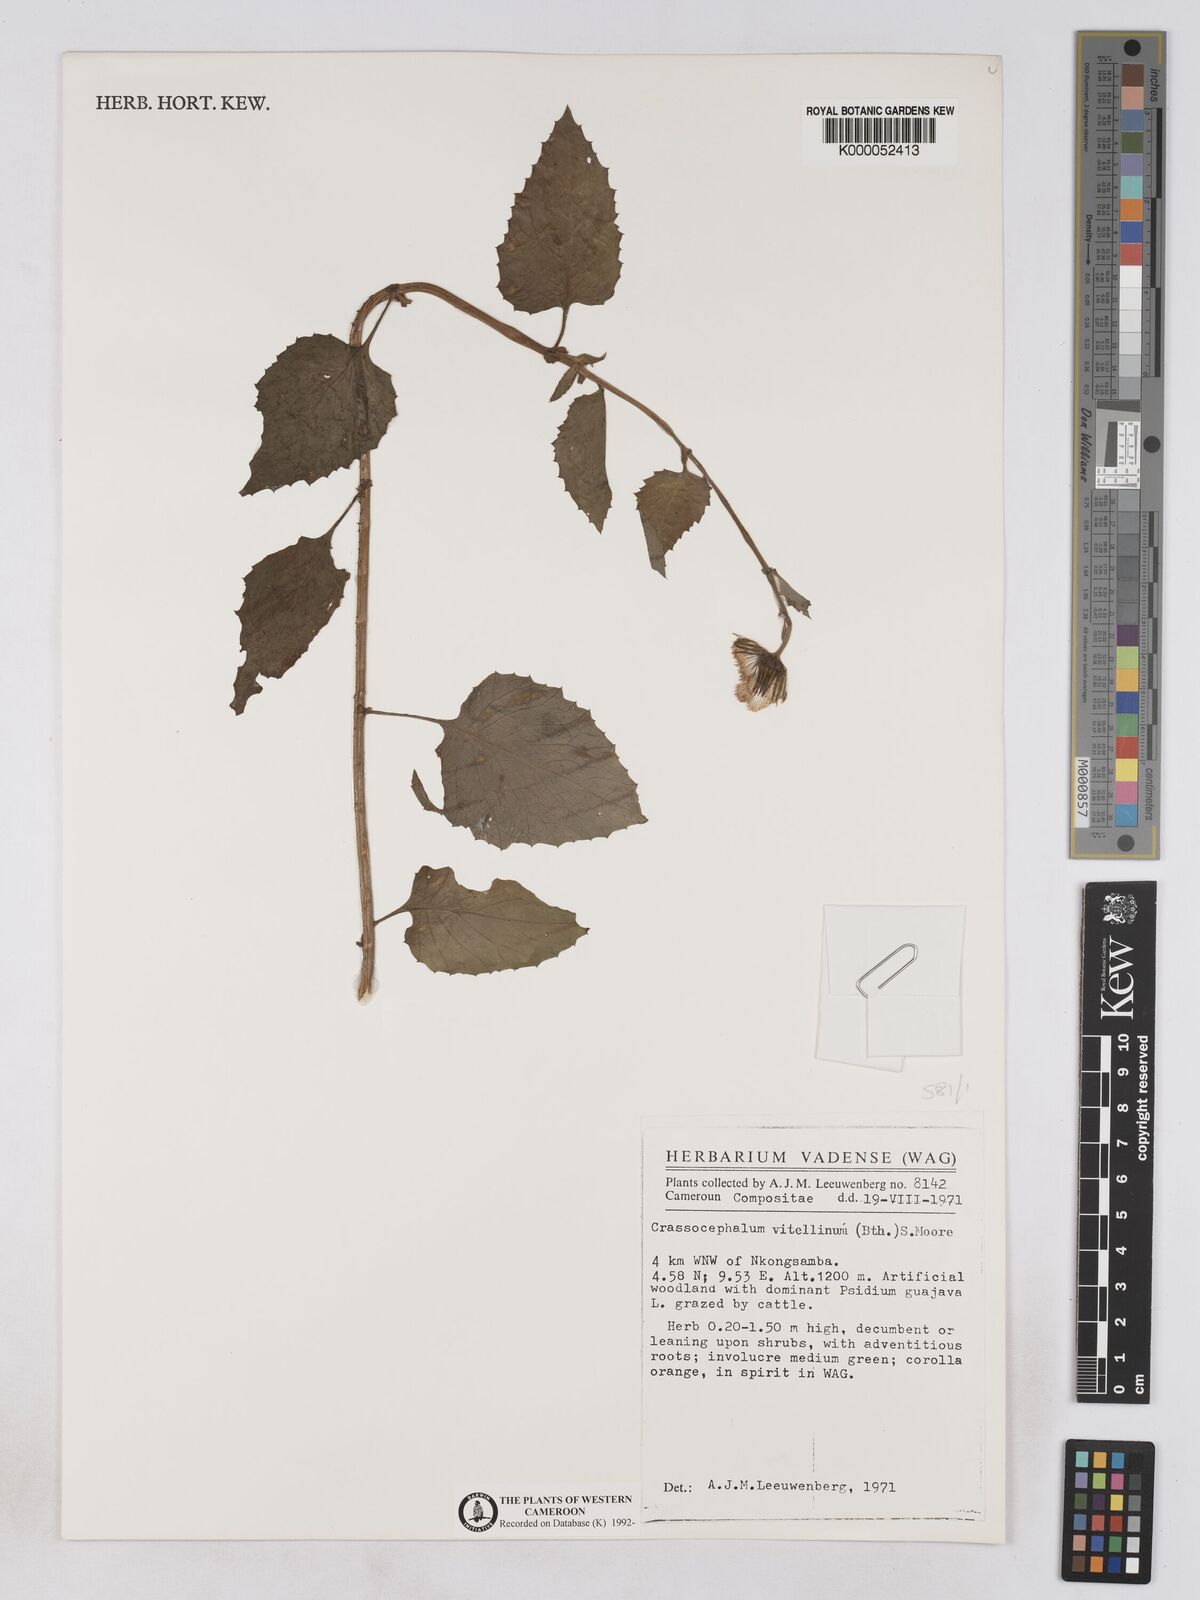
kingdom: Plantae
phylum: Tracheophyta
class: Magnoliopsida
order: Asterales
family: Asteraceae
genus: Crassocephalum
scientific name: Crassocephalum vitellinum
